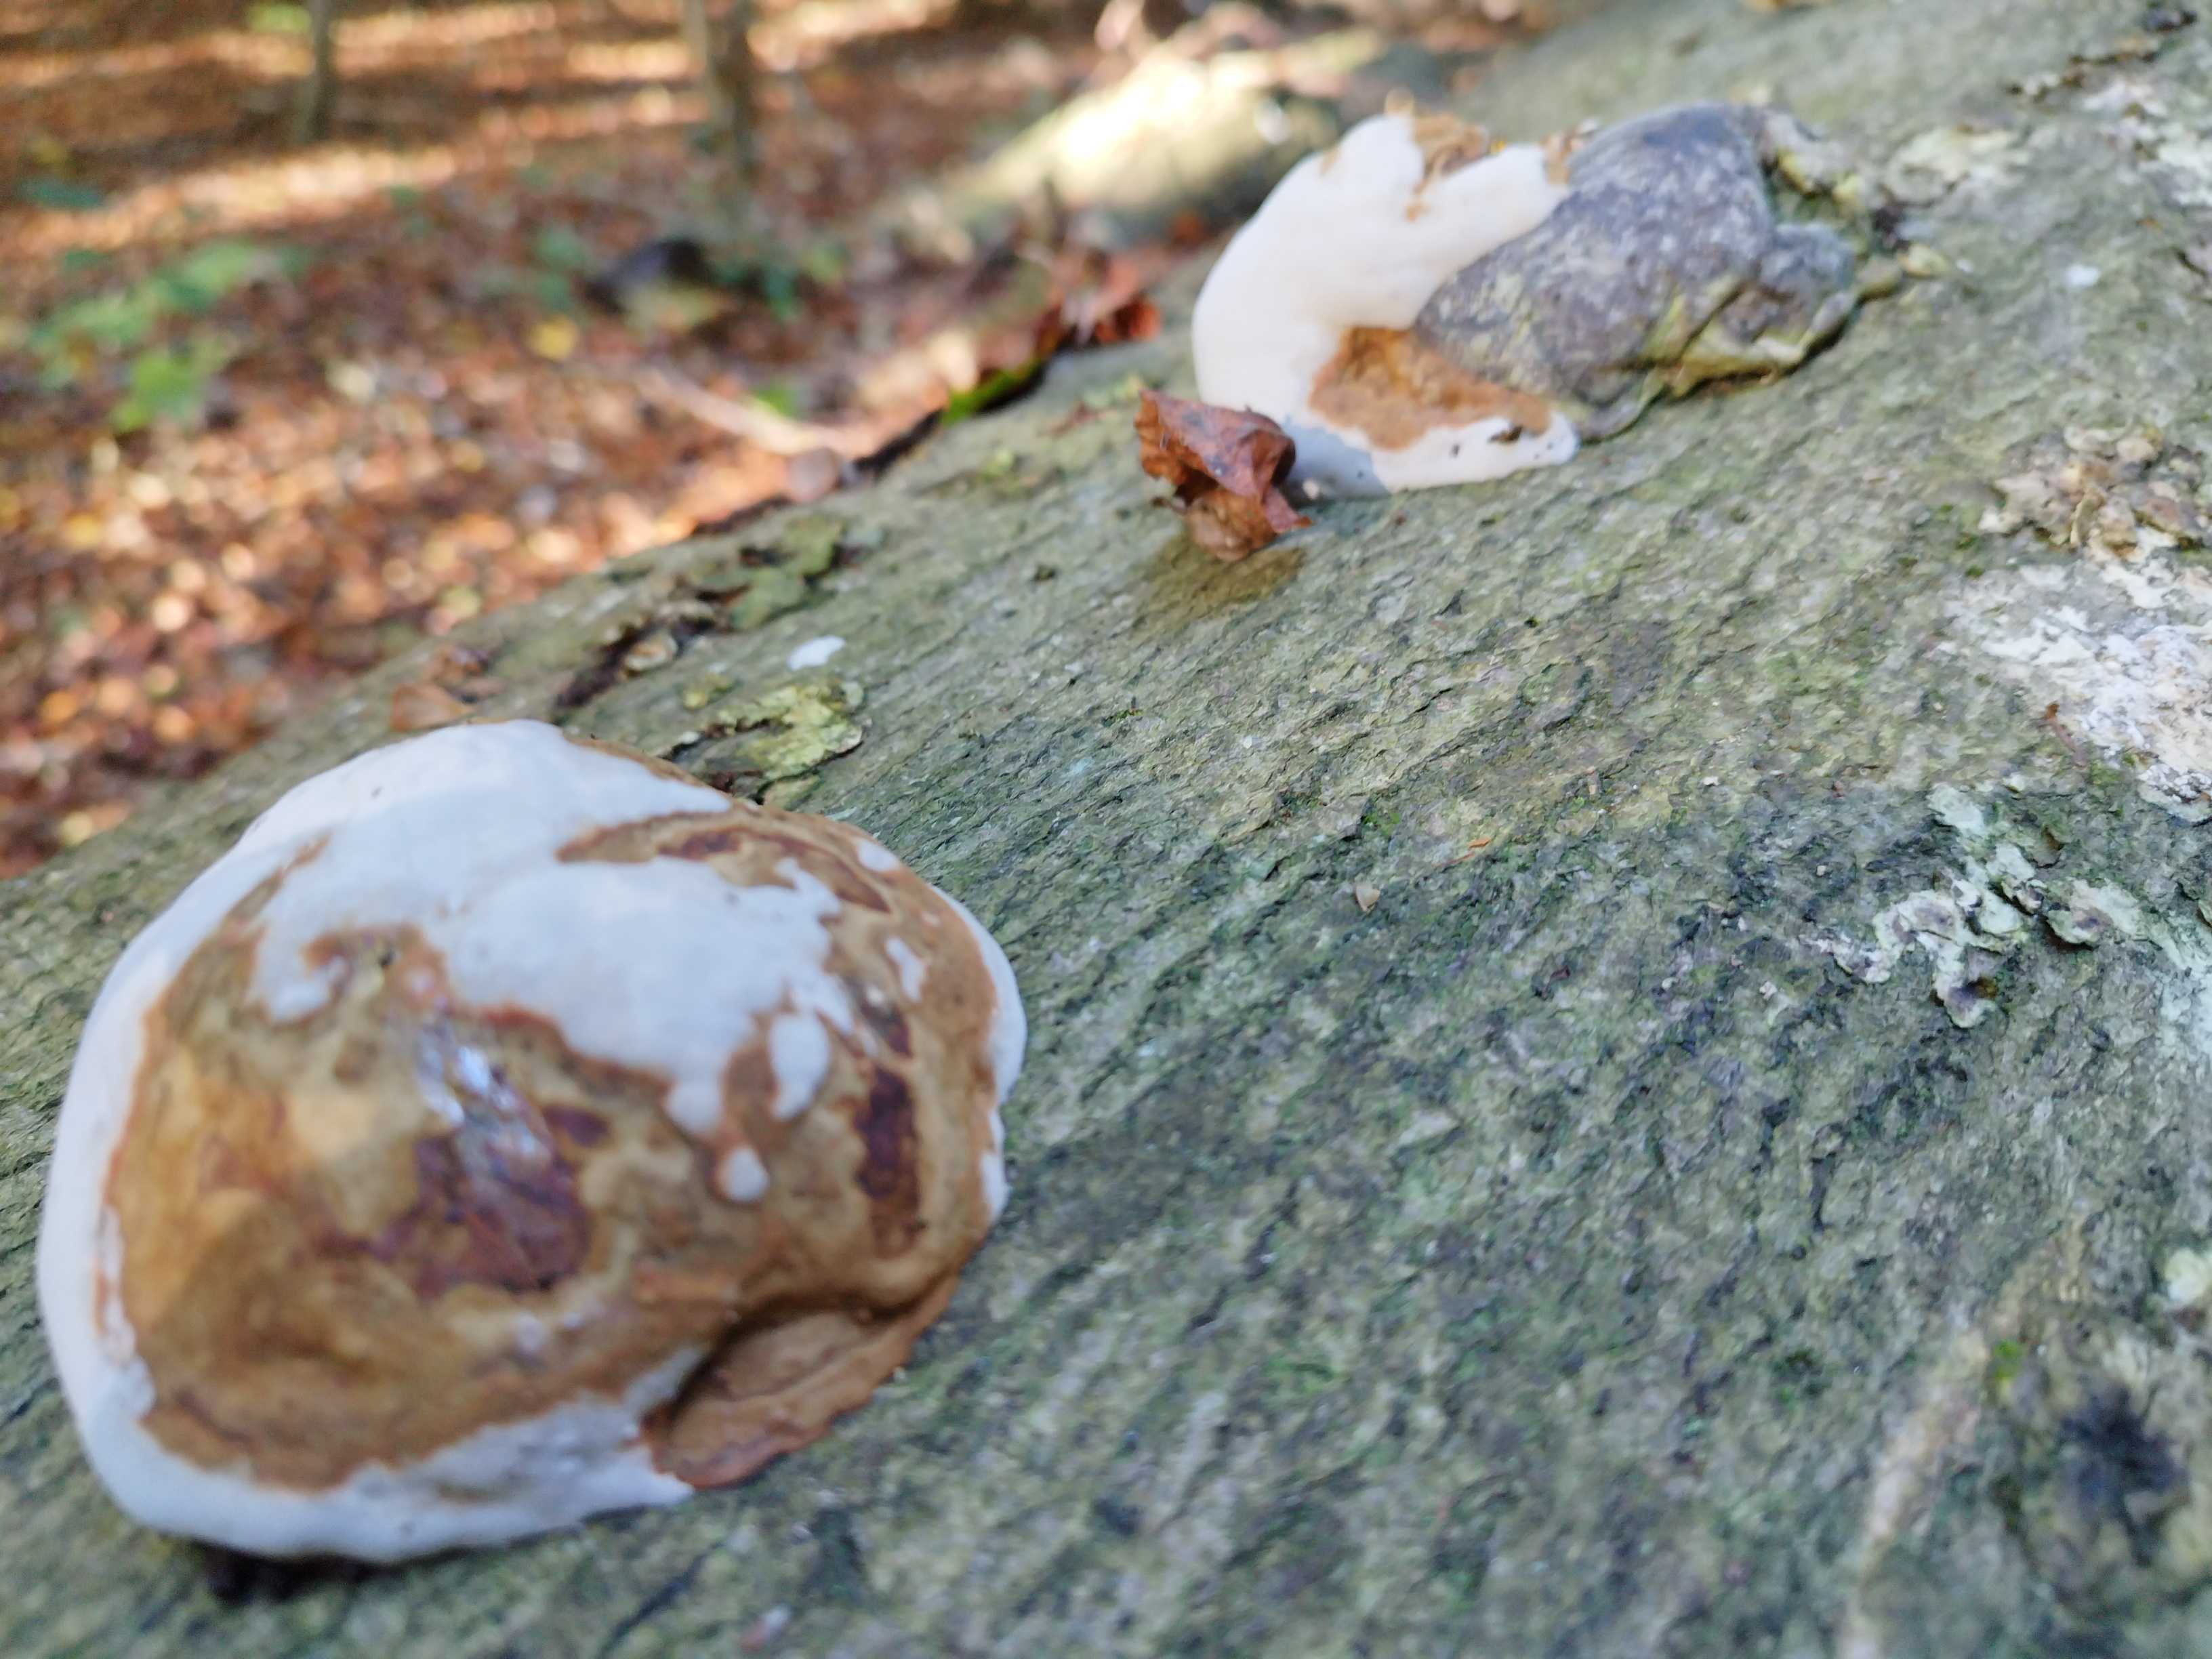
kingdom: Fungi
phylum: Basidiomycota
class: Agaricomycetes
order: Polyporales
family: Polyporaceae
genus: Fomes
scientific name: Fomes fomentarius
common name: tøndersvamp
